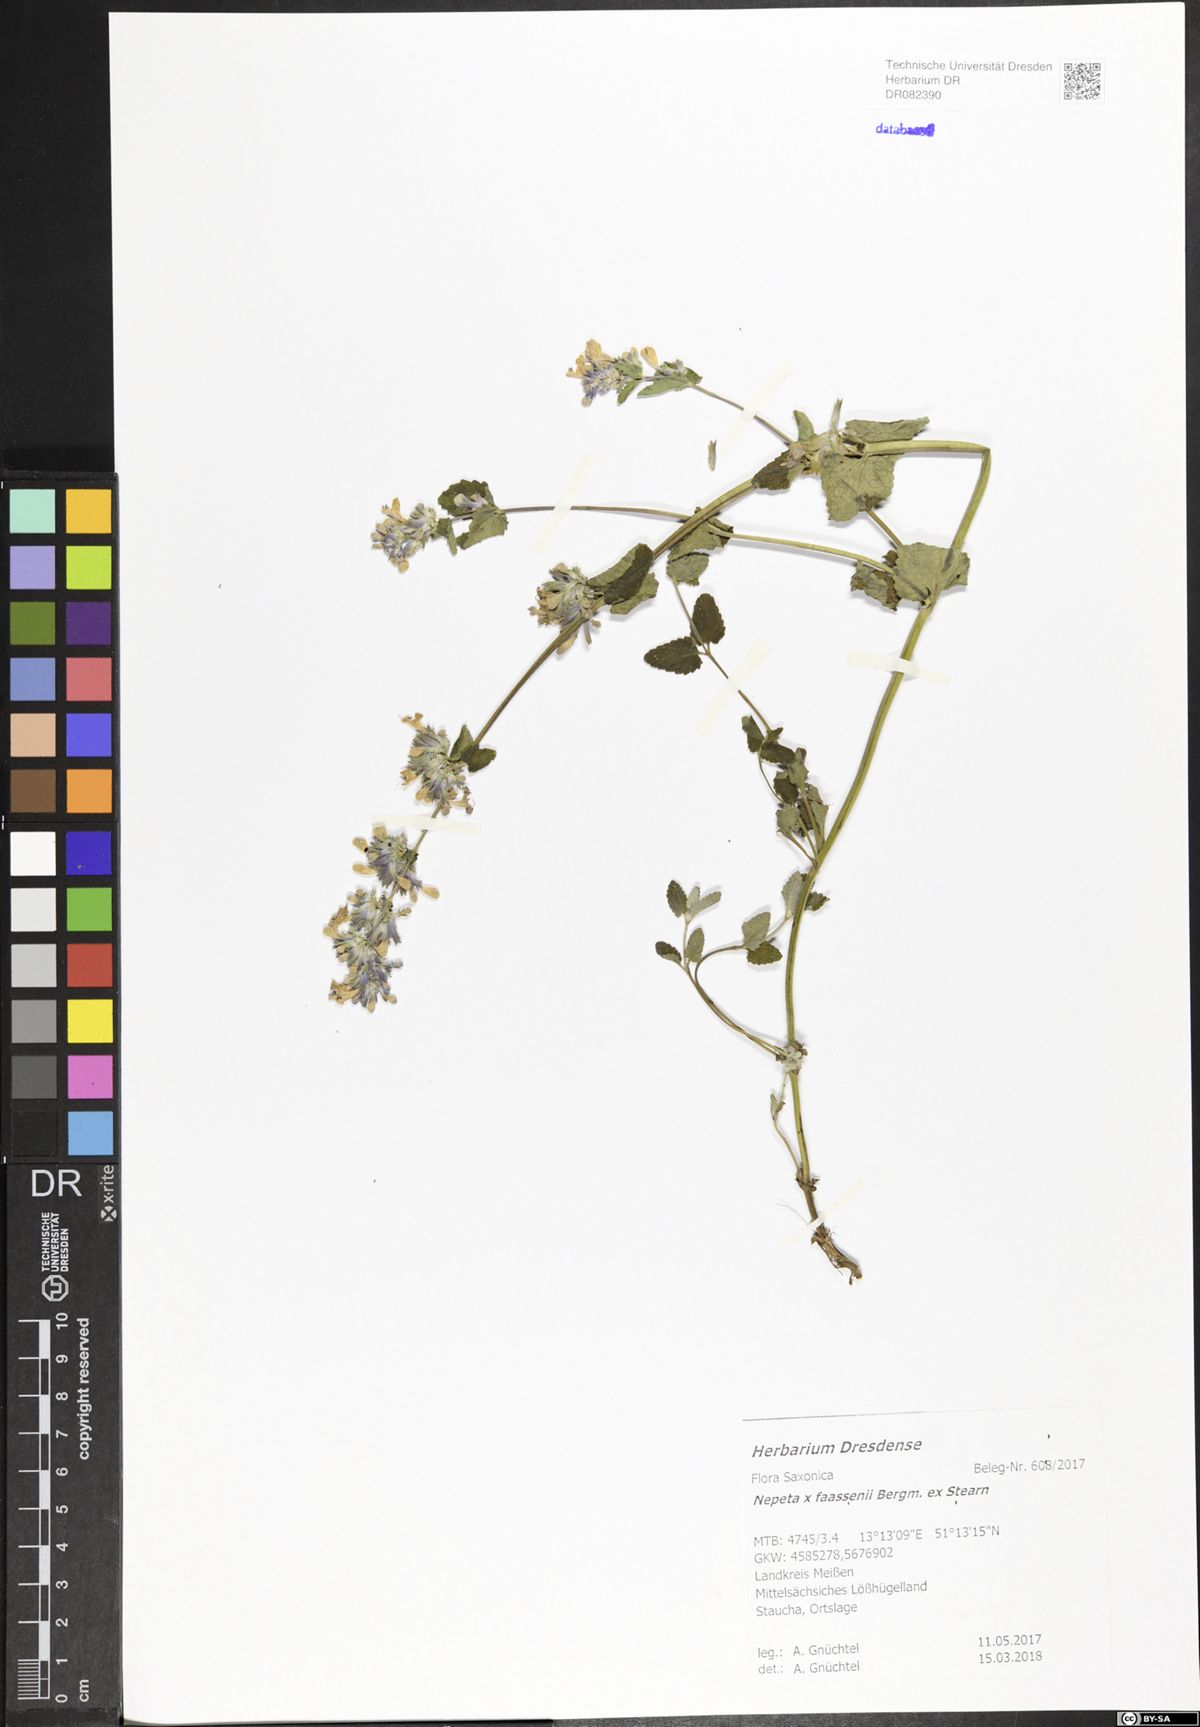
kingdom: Plantae
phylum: Tracheophyta
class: Magnoliopsida
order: Lamiales
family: Lamiaceae
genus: Nepeta
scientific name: Nepeta faassenii
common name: Catmint
